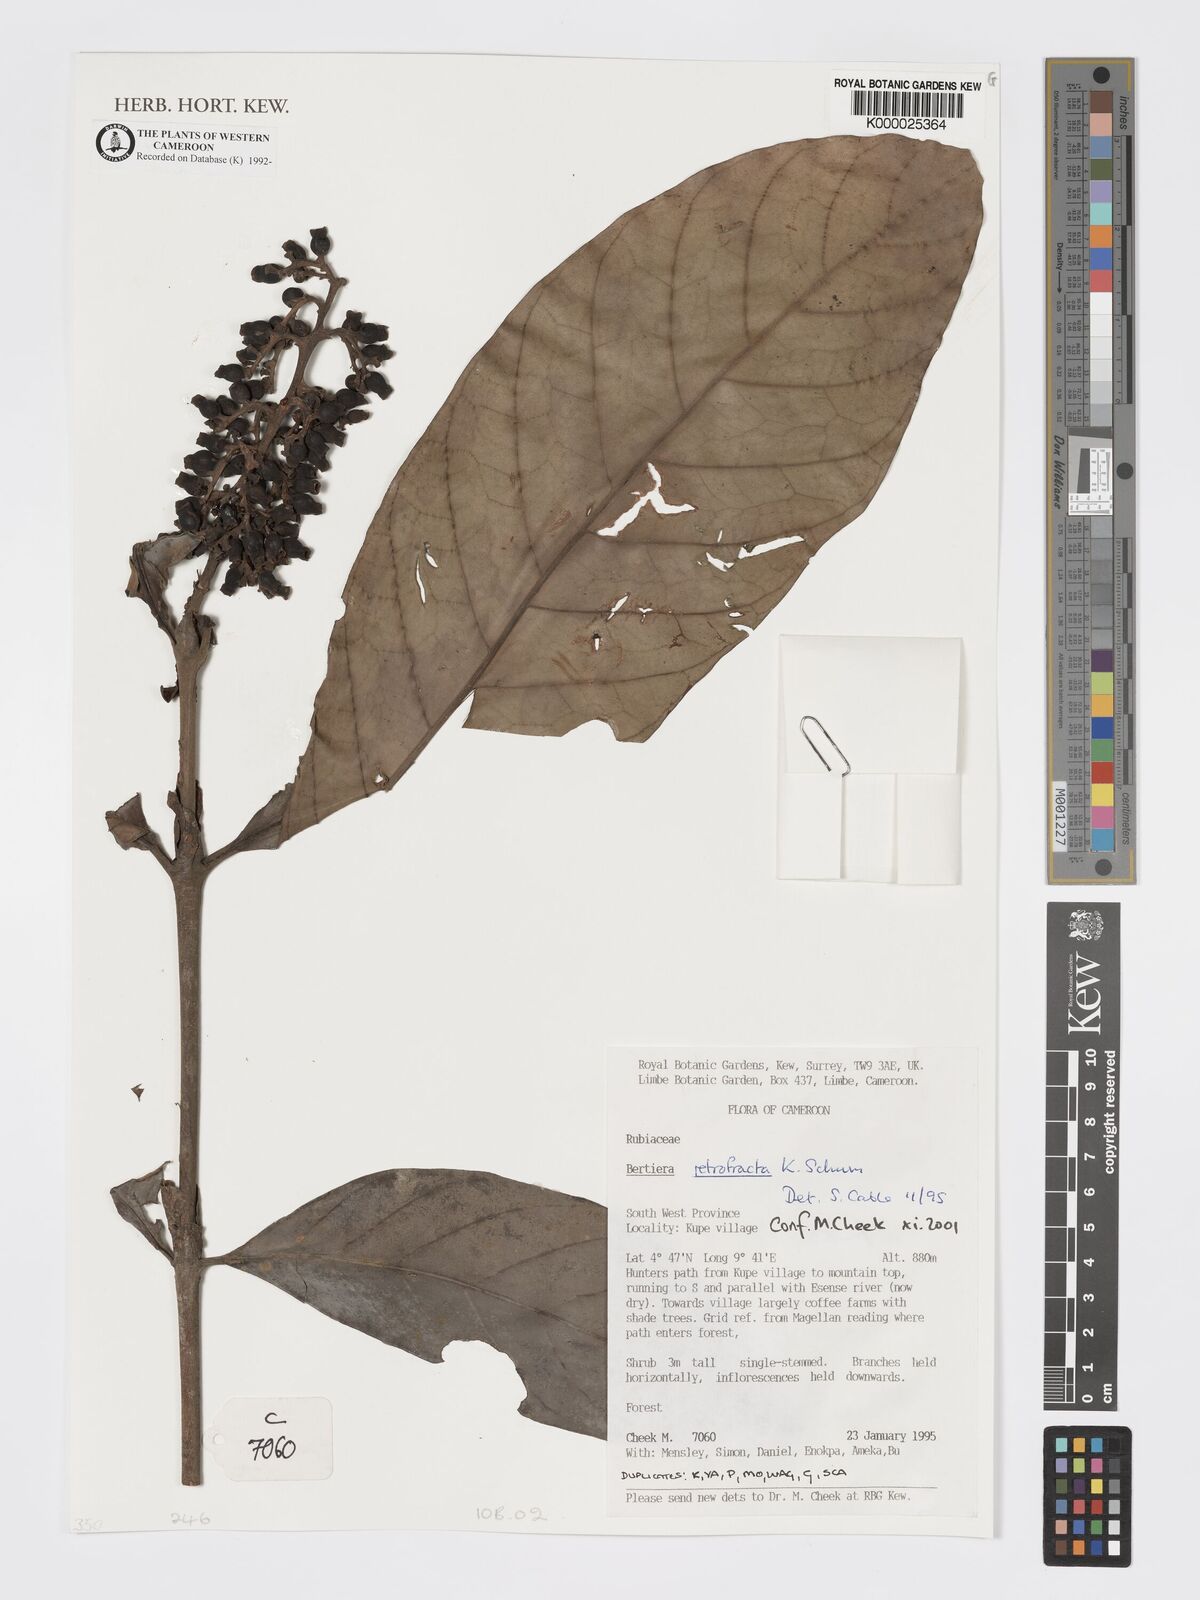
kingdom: Plantae
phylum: Tracheophyta
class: Magnoliopsida
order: Gentianales
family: Rubiaceae
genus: Bertiera
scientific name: Bertiera retrofracta
